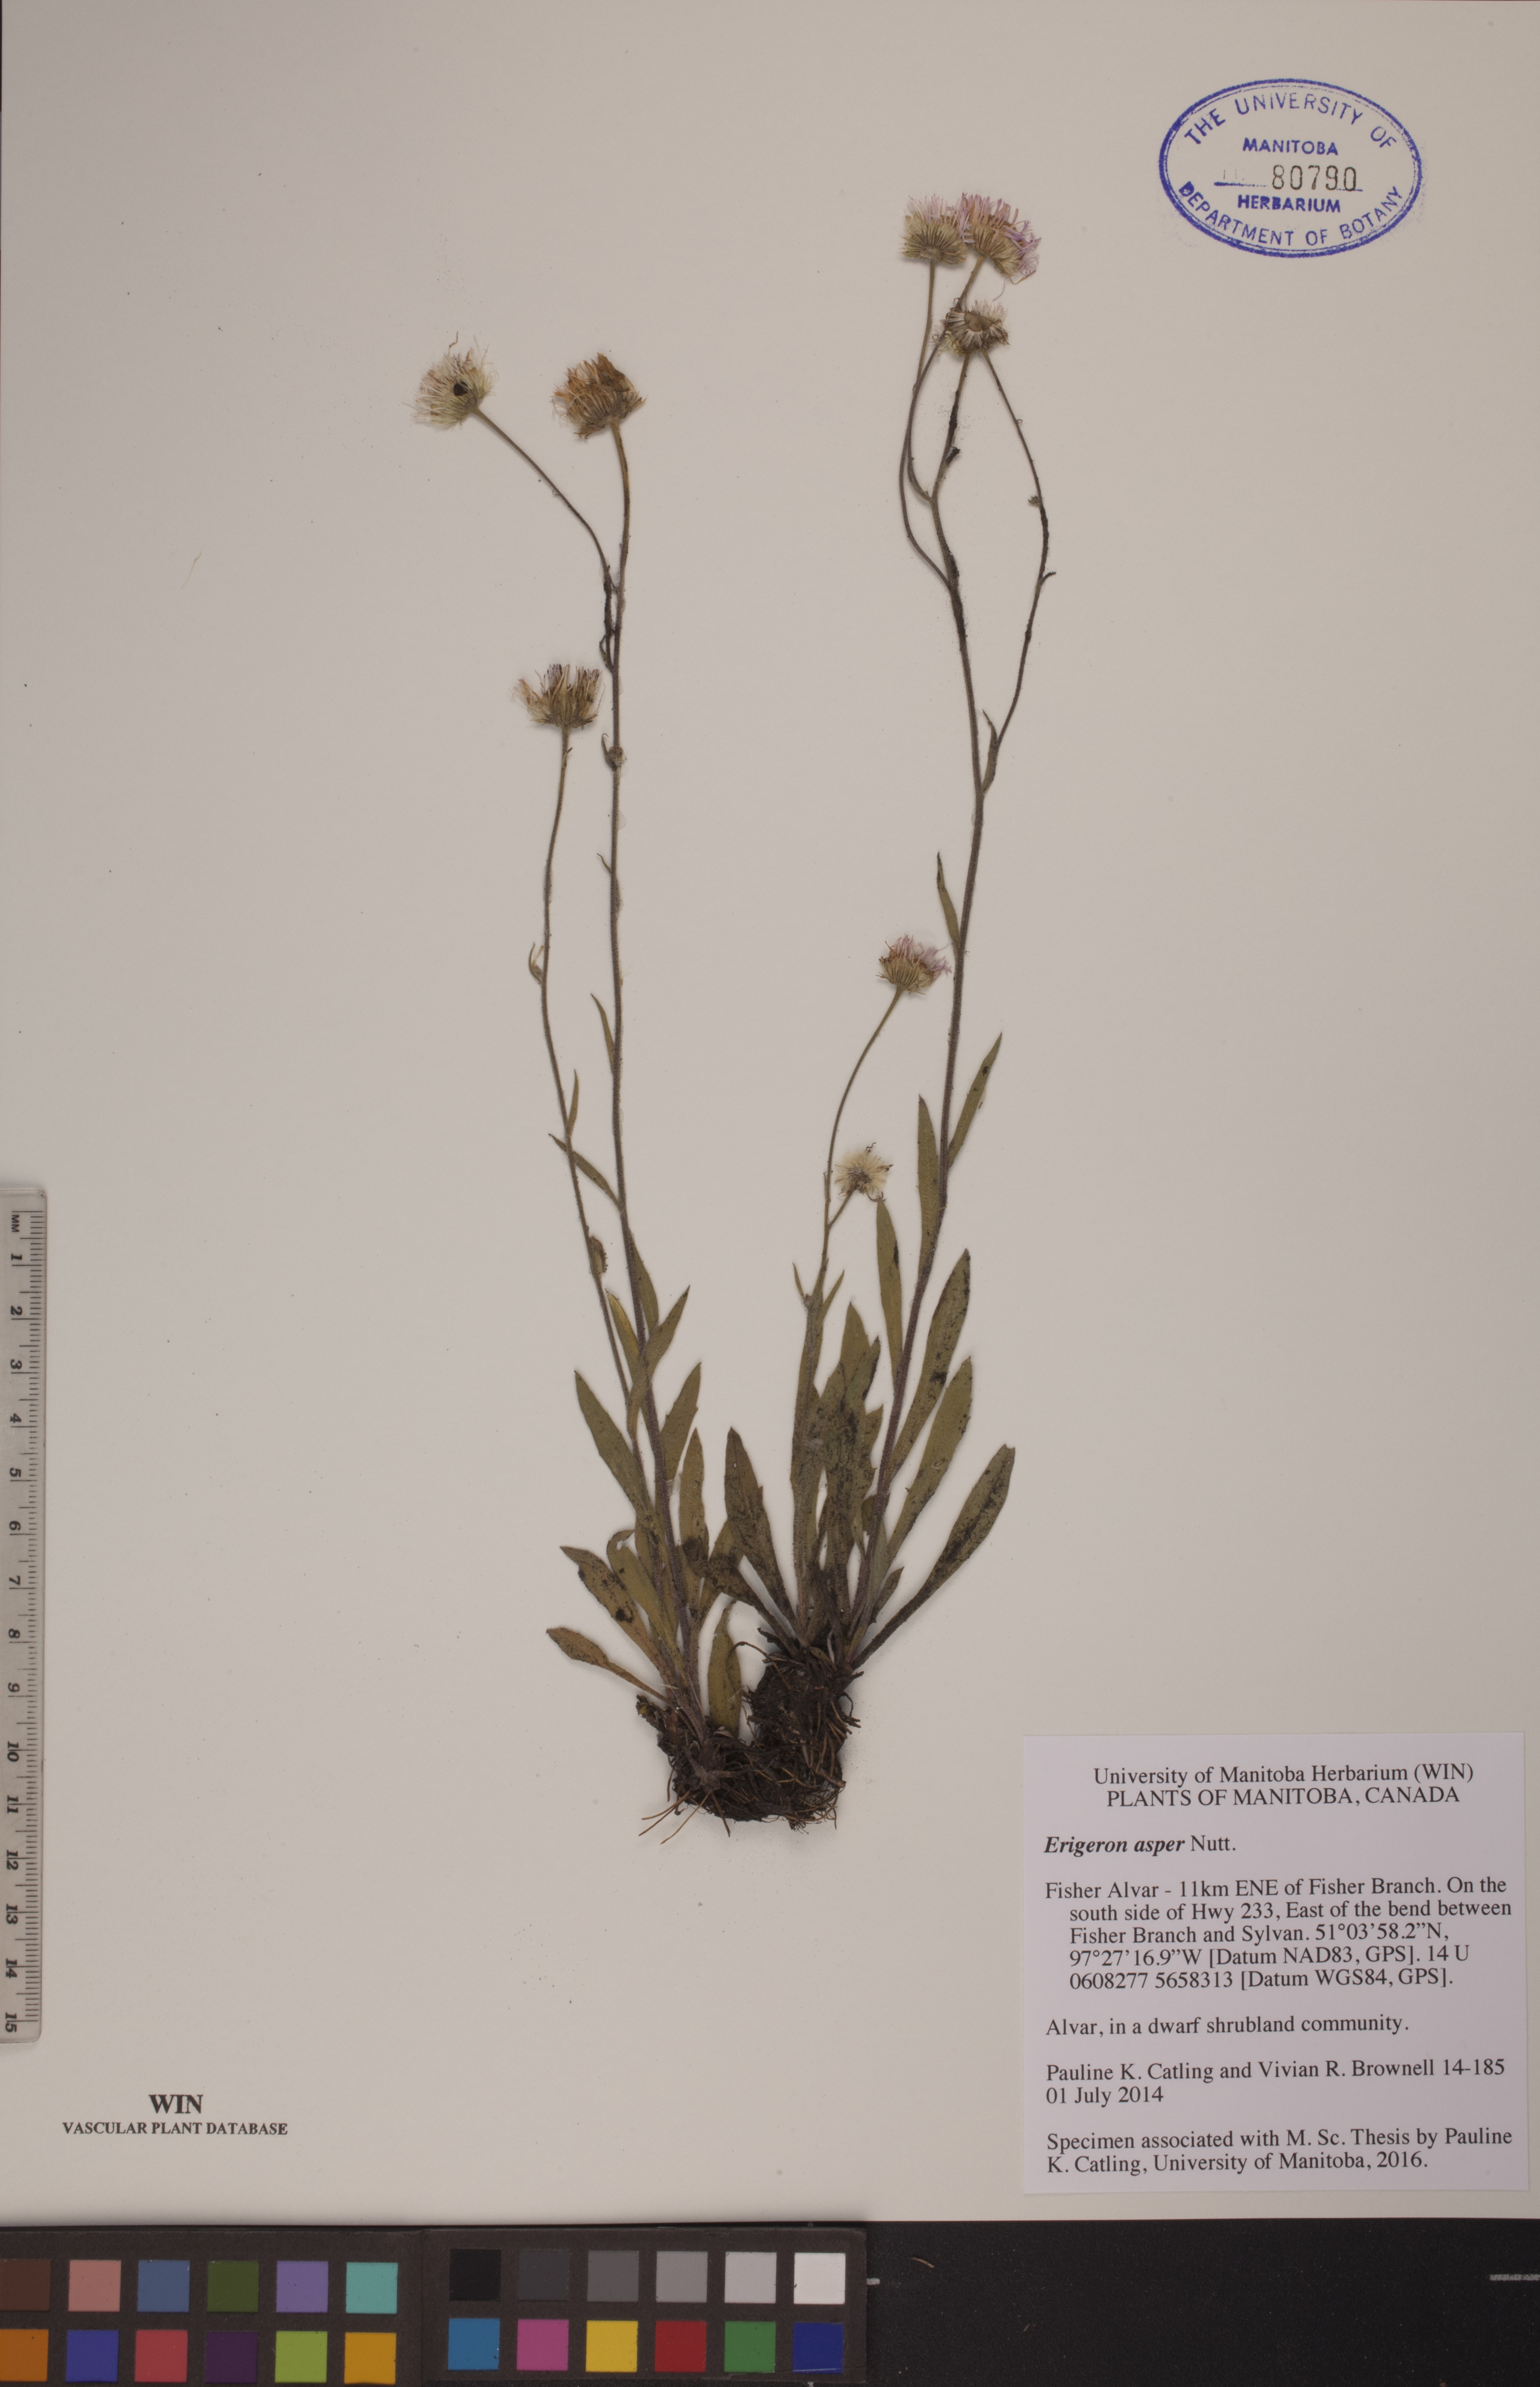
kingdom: Plantae
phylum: Tracheophyta
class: Magnoliopsida
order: Asterales
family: Asteraceae
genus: Erigeron
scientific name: Erigeron glabellus
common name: Smooth fleabane
